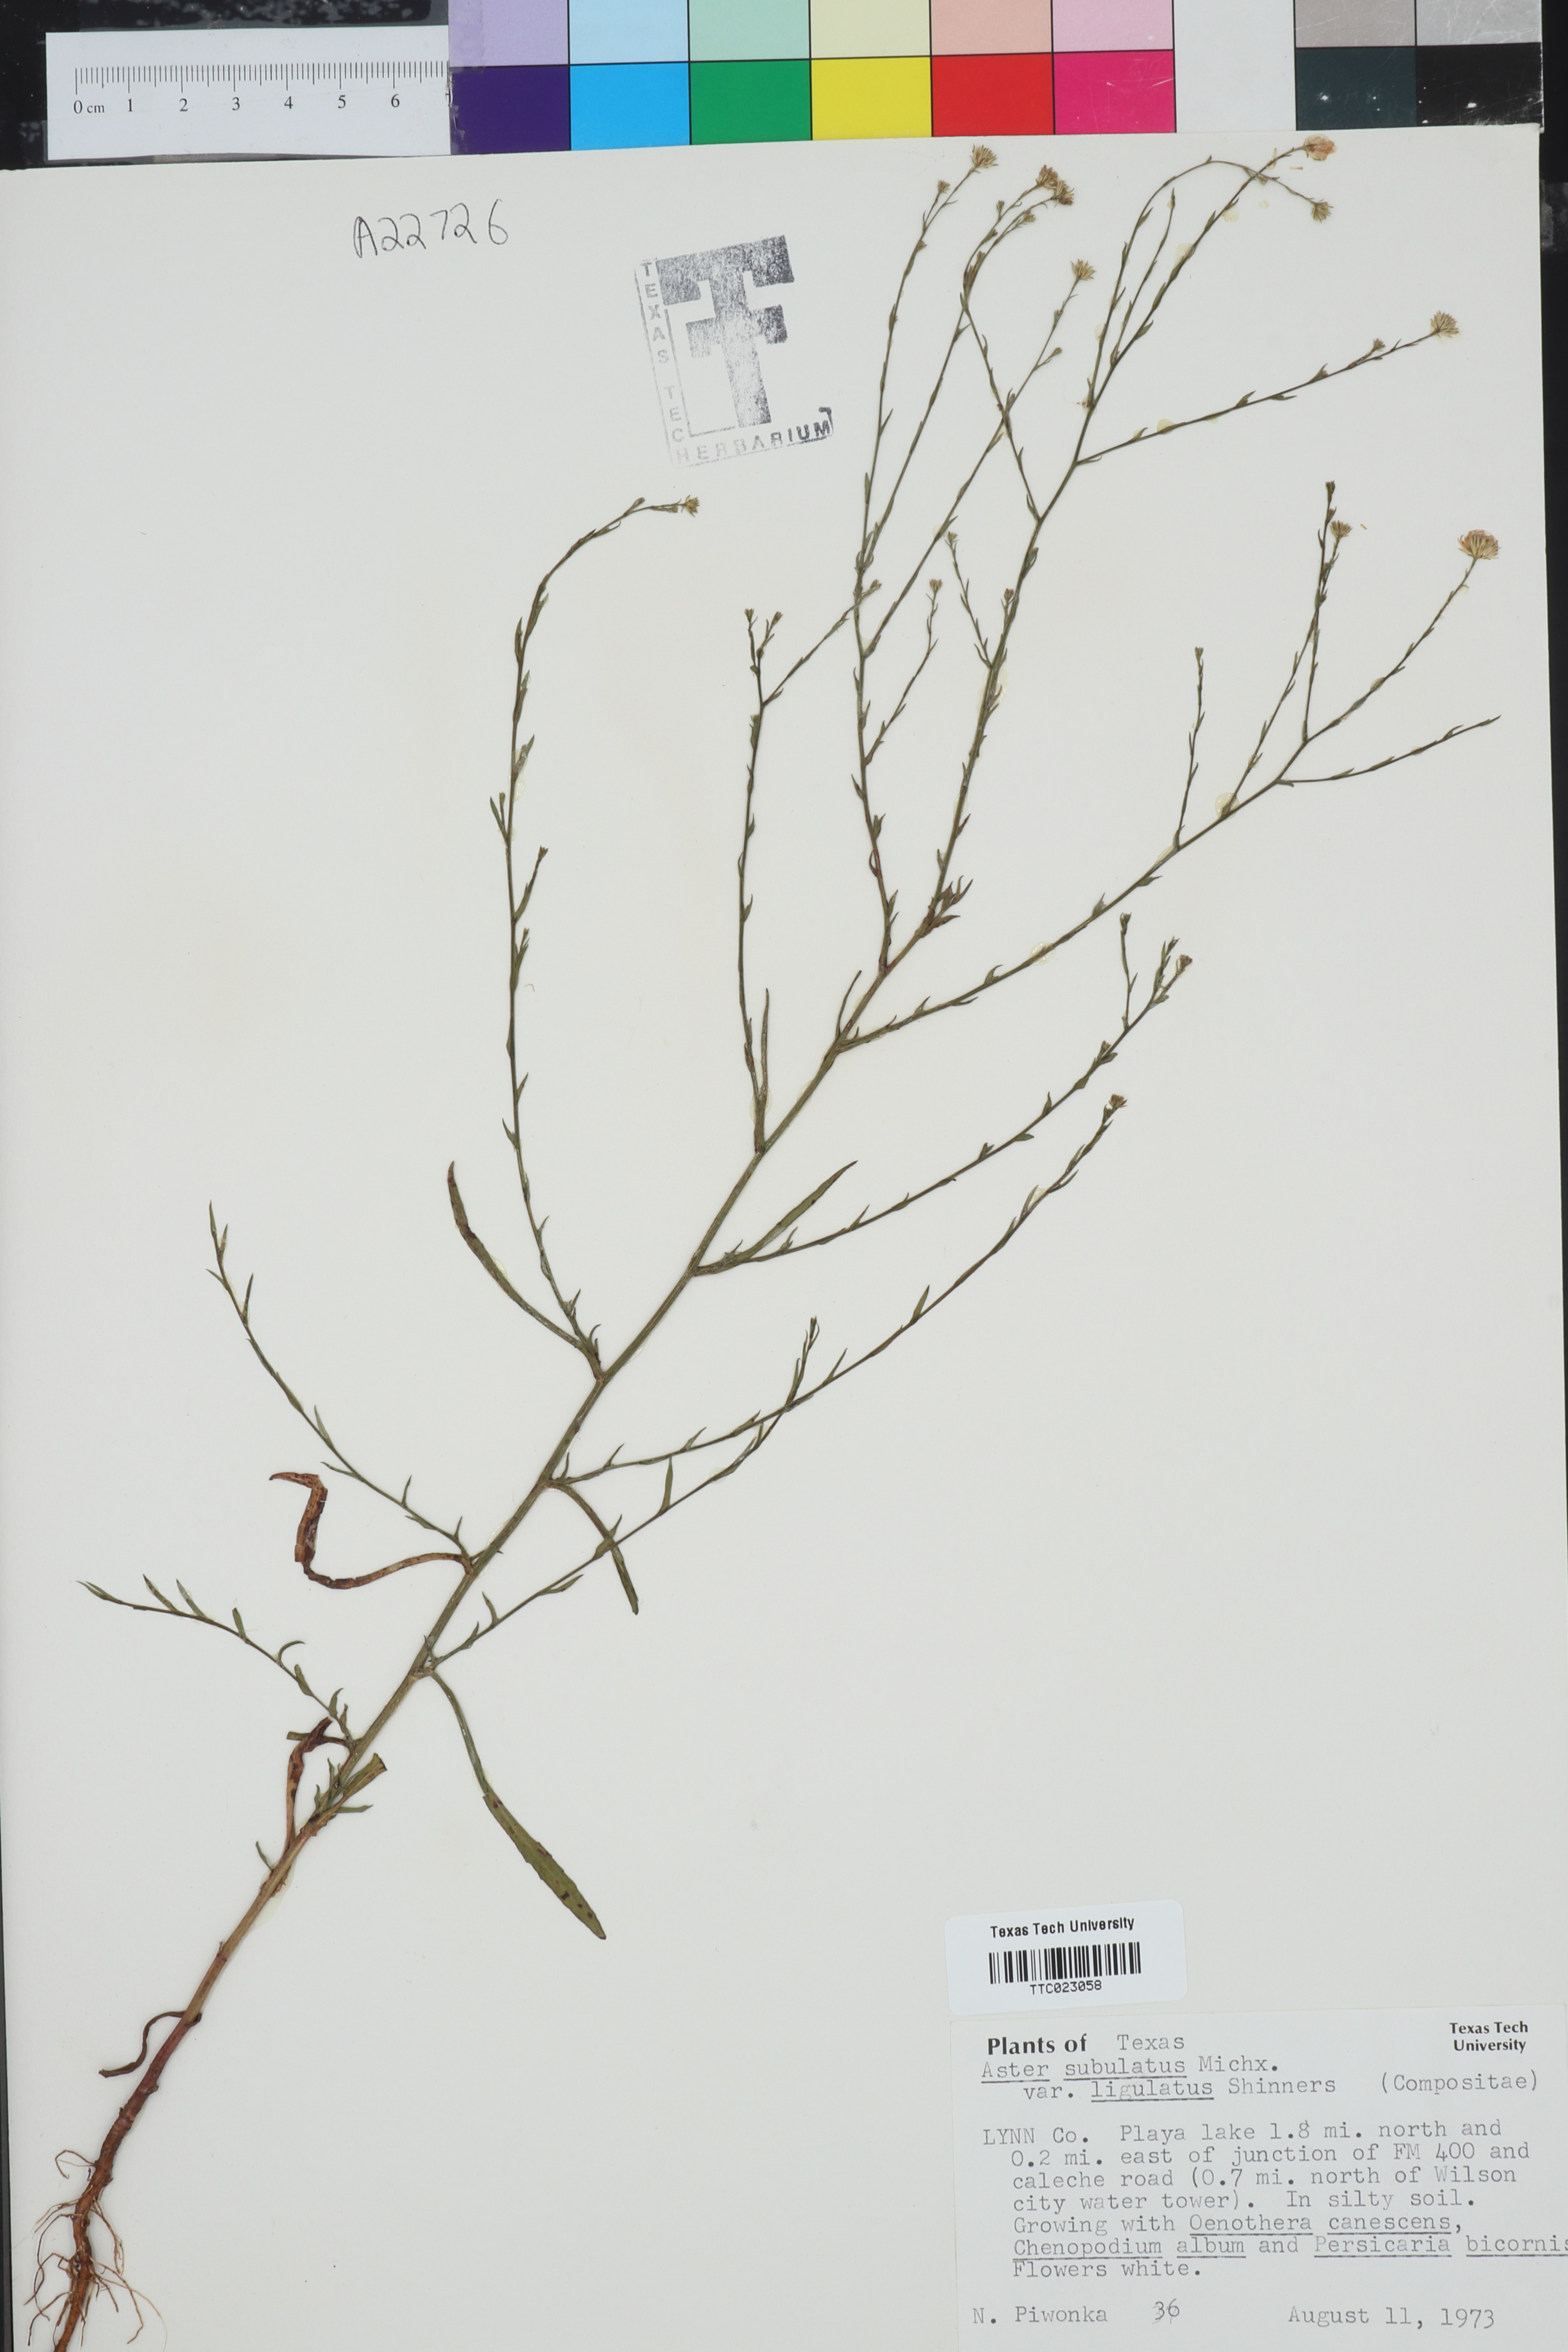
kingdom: Plantae
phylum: Tracheophyta
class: Magnoliopsida
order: Asterales
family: Asteraceae
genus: Symphyotrichum
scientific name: Symphyotrichum subulatum
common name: Annual saltmarsh aster
